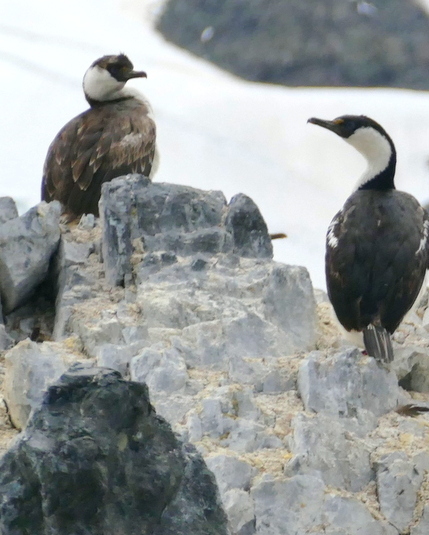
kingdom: Animalia
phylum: Chordata
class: Aves
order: Suliformes
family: Phalacrocoracidae
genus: Leucocarbo
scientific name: Leucocarbo atriceps
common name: Antarctic shag
